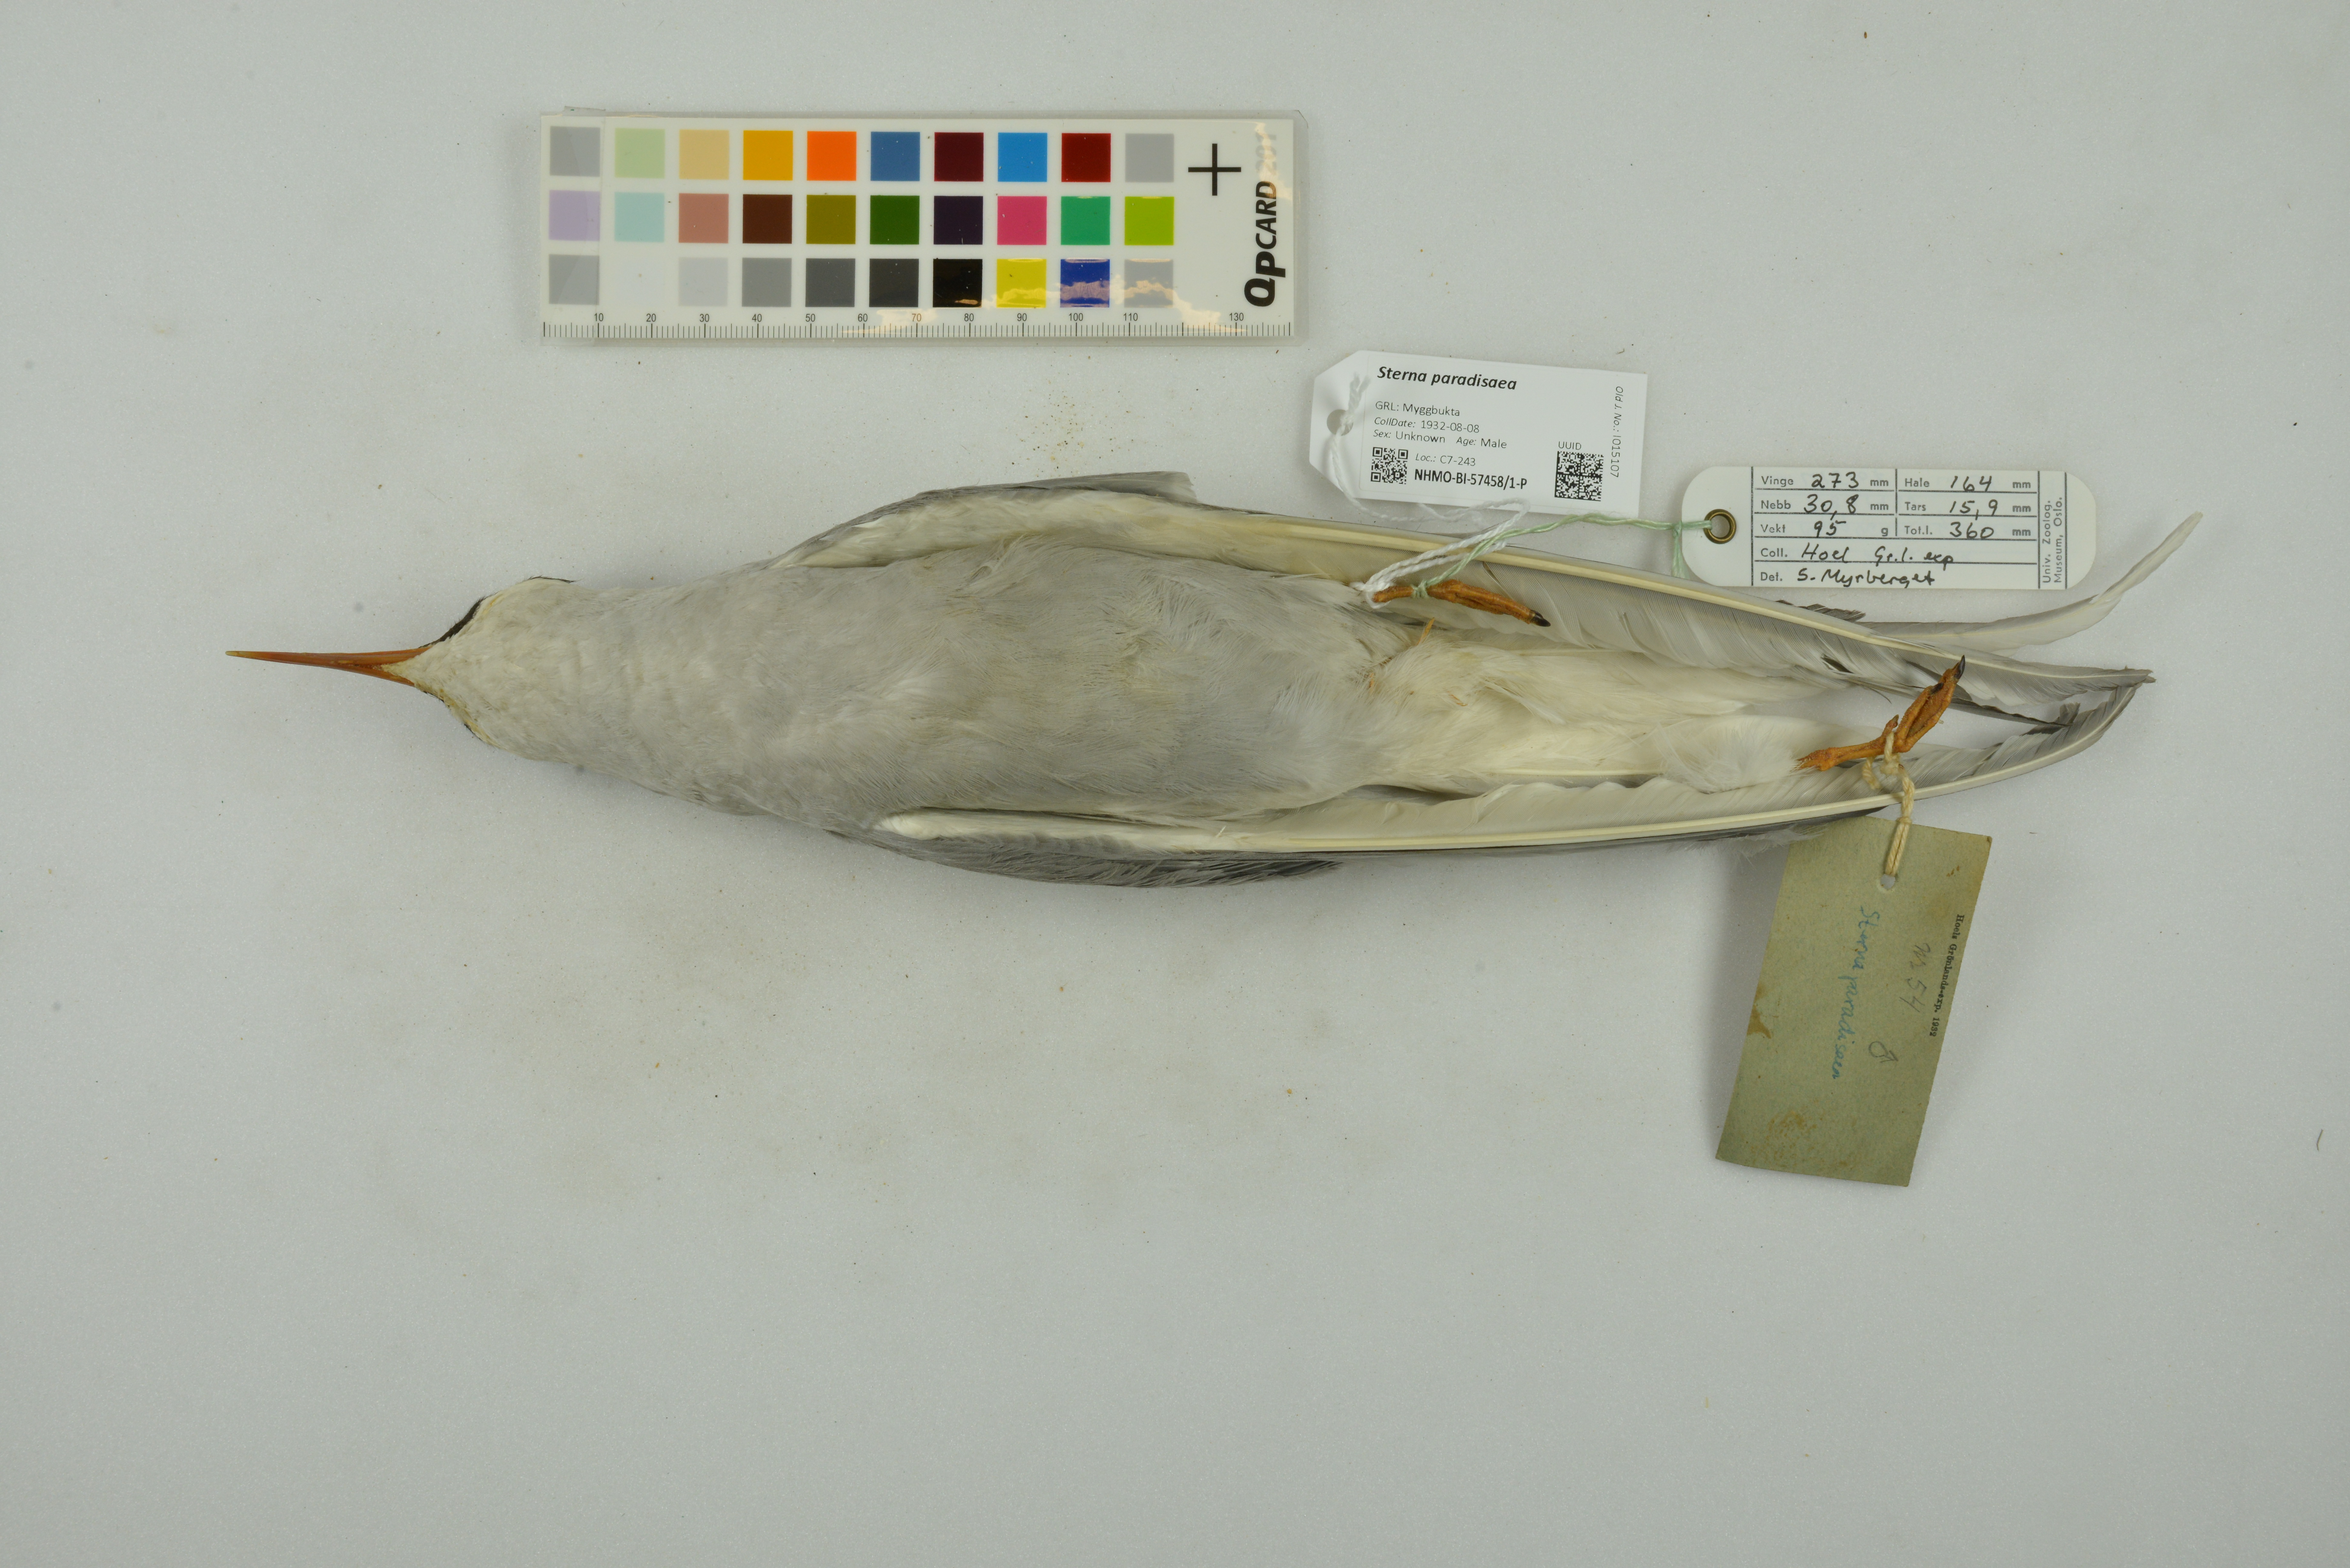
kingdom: Animalia
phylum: Chordata
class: Aves
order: Charadriiformes
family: Laridae
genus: Sterna
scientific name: Sterna paradisaea
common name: Arctic tern
